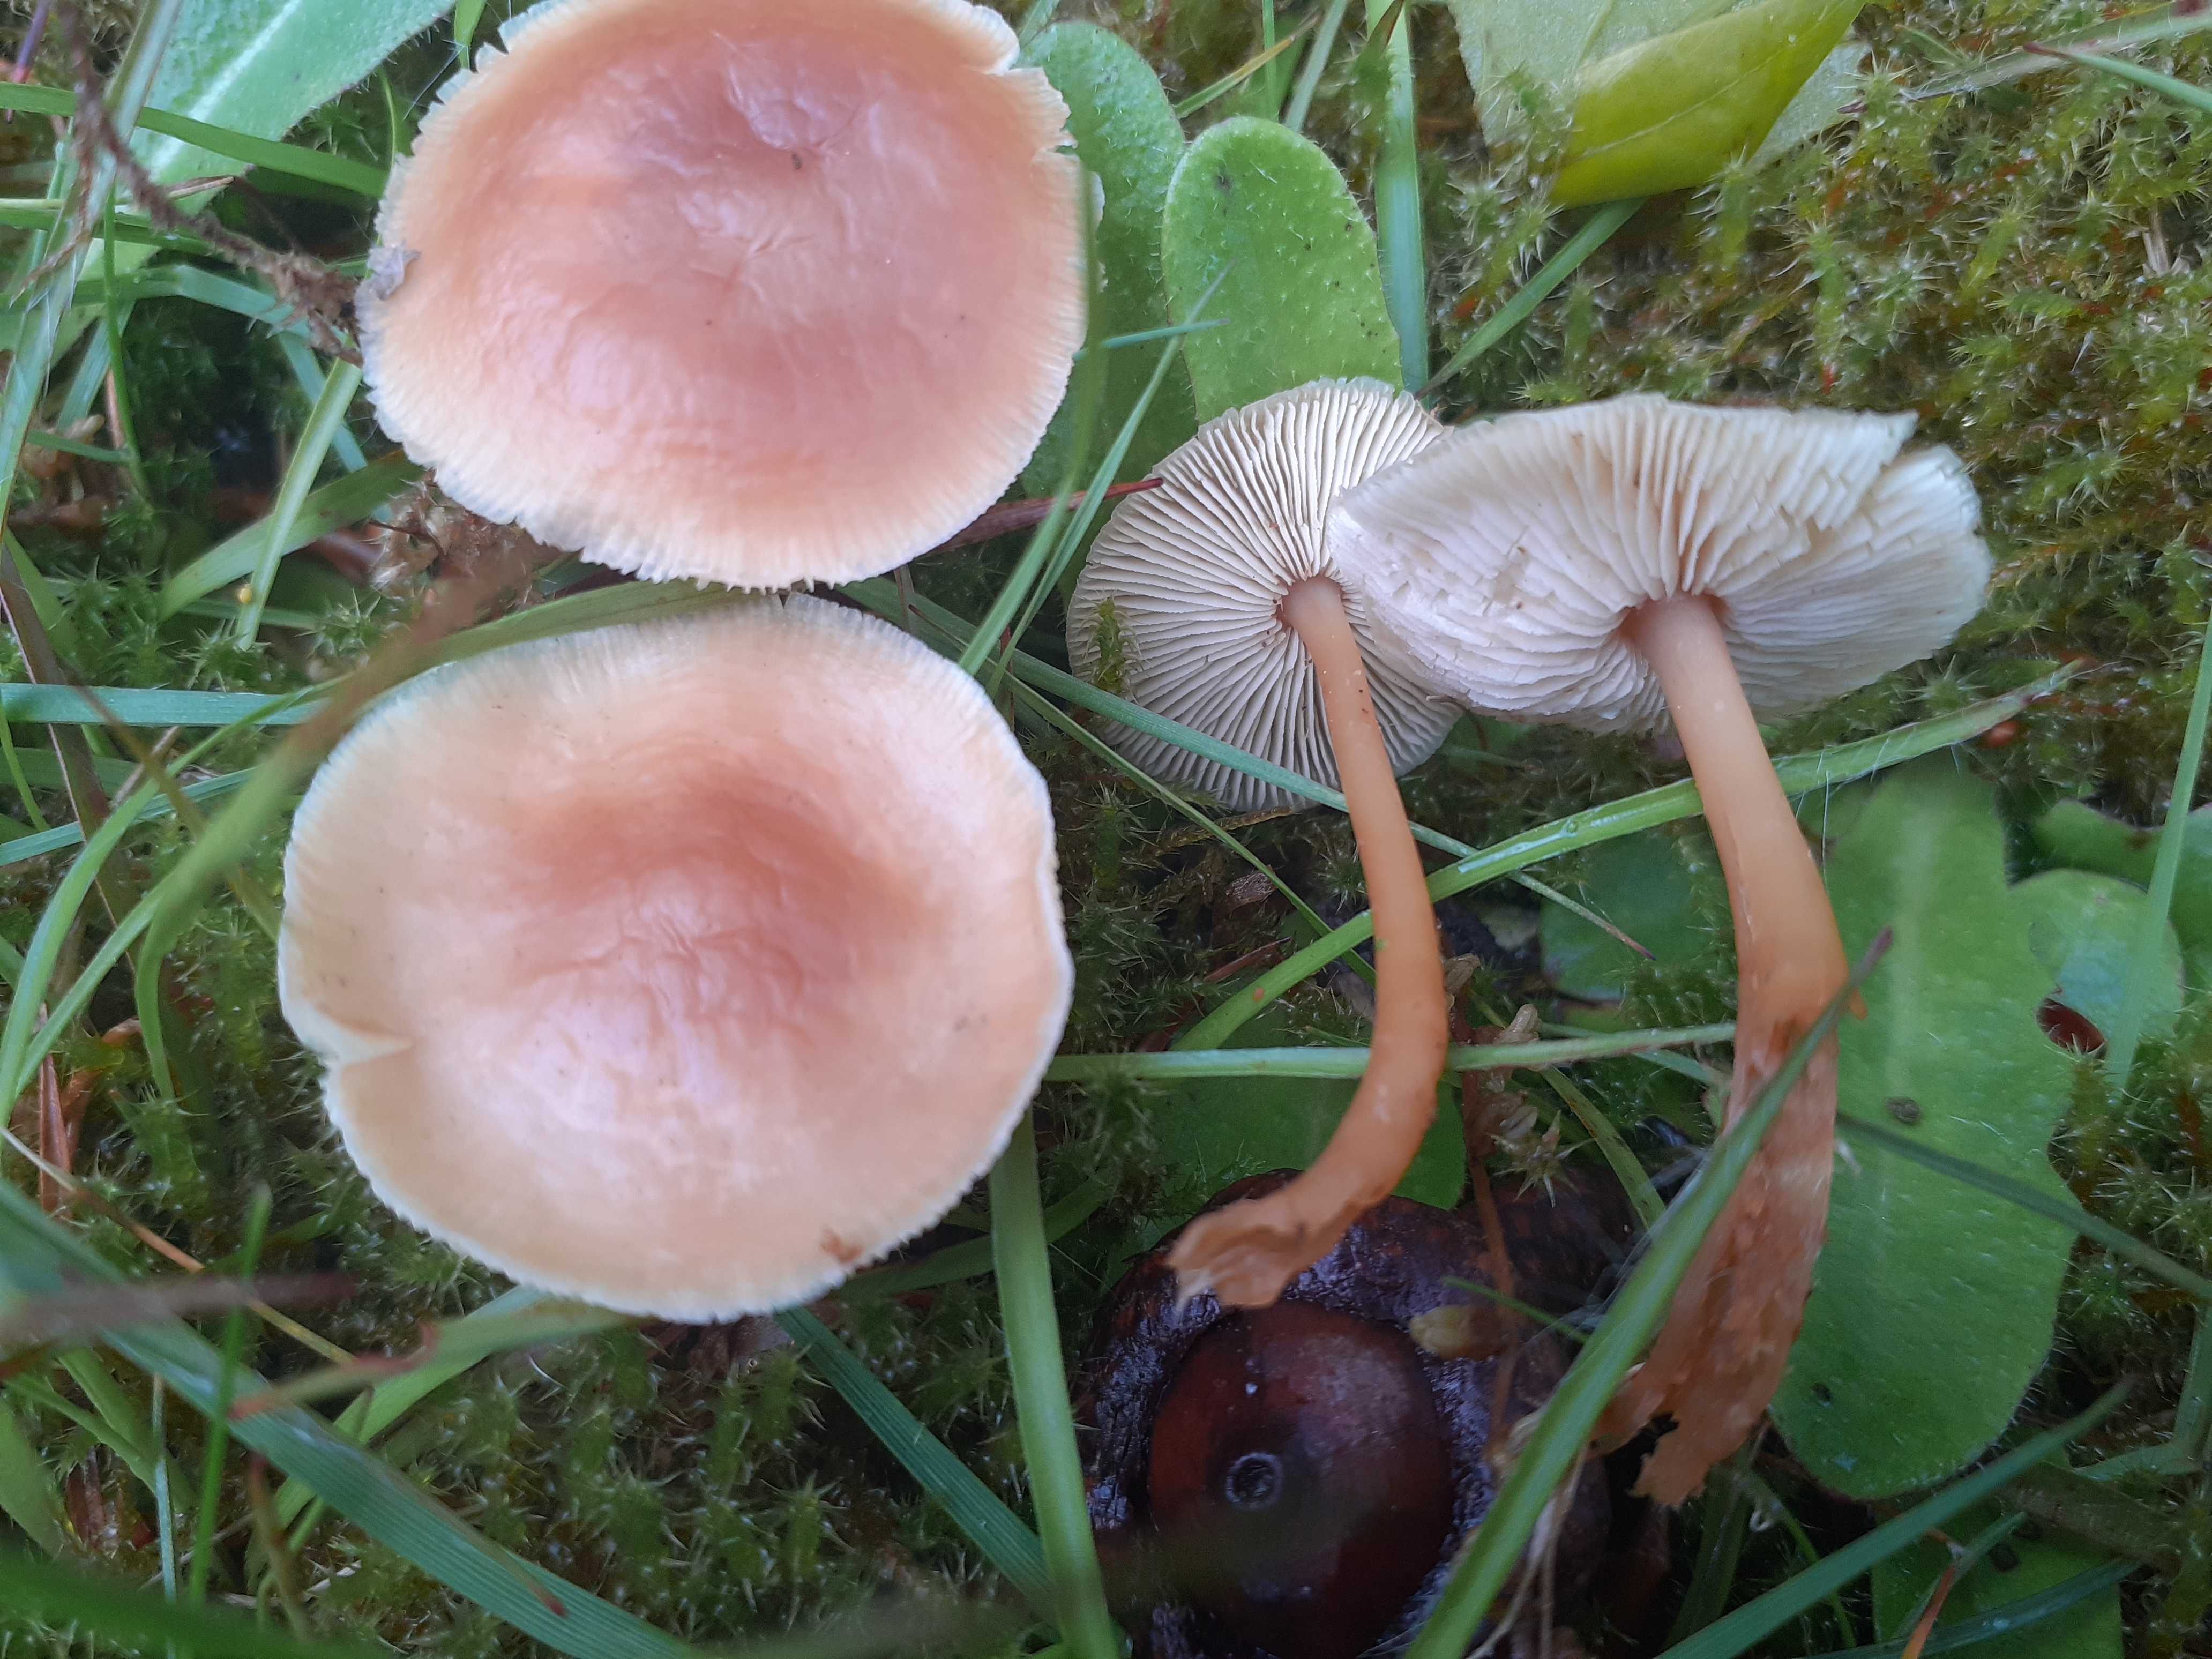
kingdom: Fungi
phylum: Basidiomycota
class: Agaricomycetes
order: Agaricales
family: Omphalotaceae
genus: Gymnopus
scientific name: Gymnopus ocior
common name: mørk fladhat
